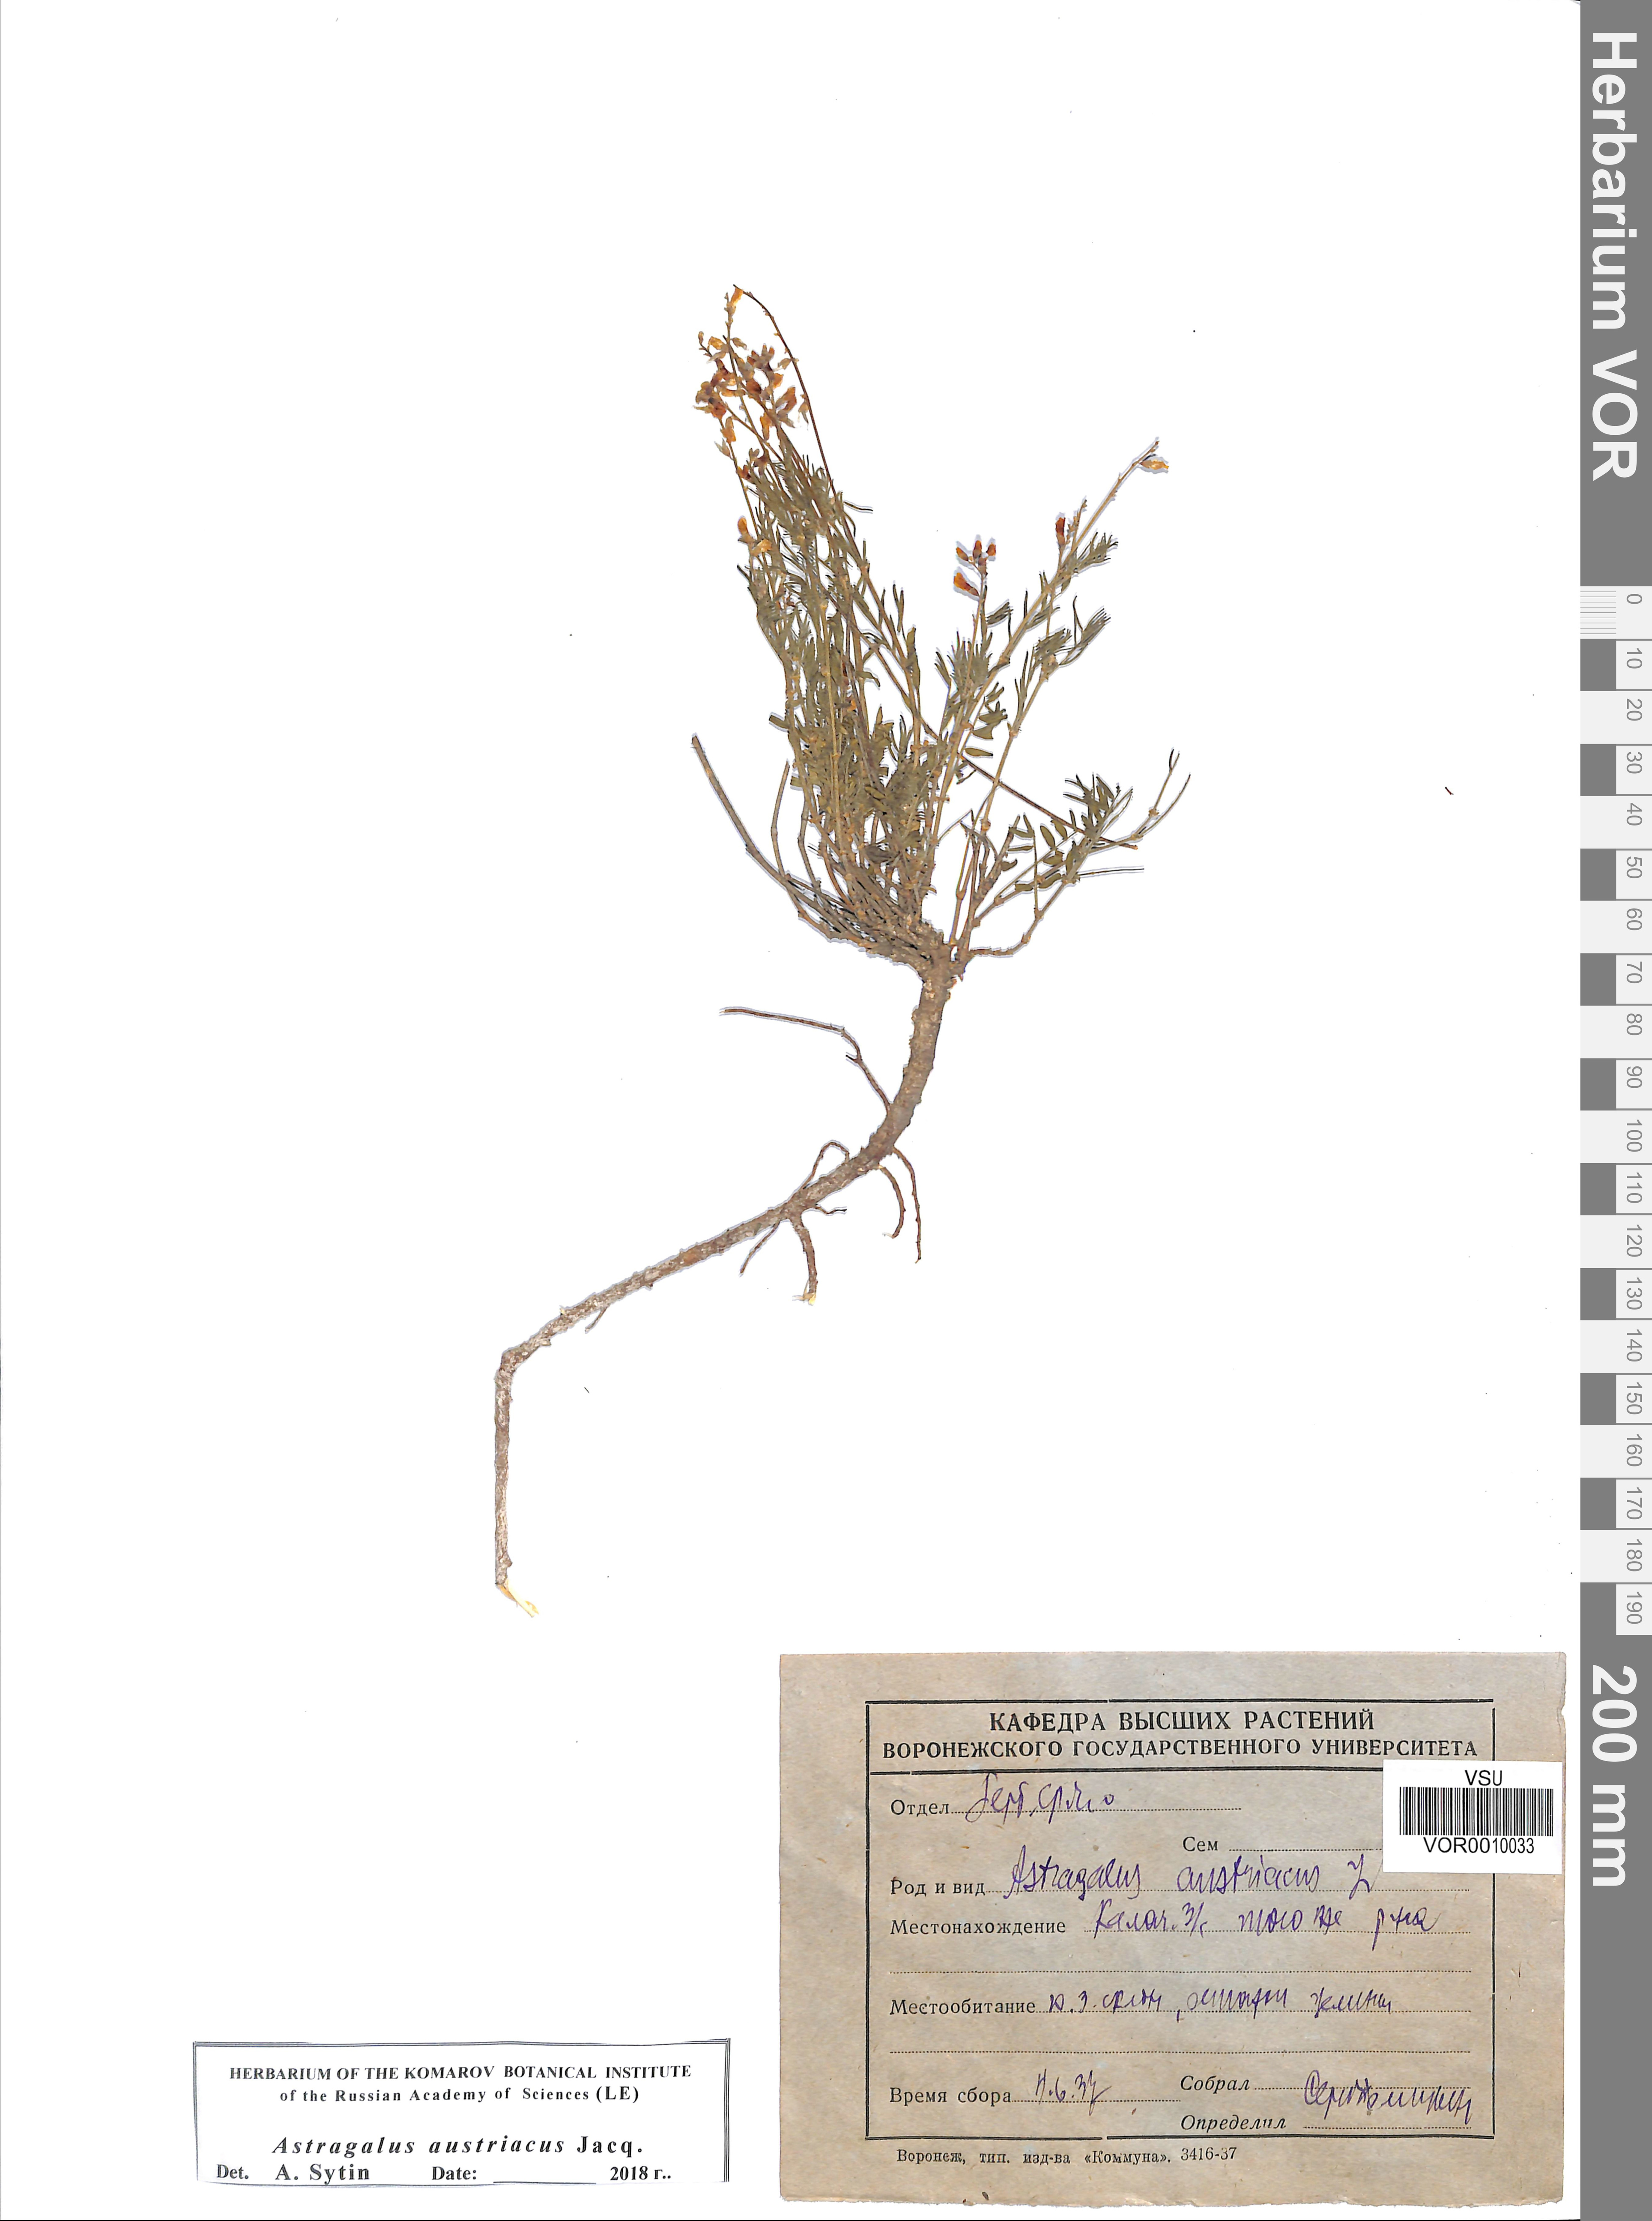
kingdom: Plantae
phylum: Tracheophyta
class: Magnoliopsida
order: Fabales
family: Fabaceae
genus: Astragalus
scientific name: Astragalus austriacus
